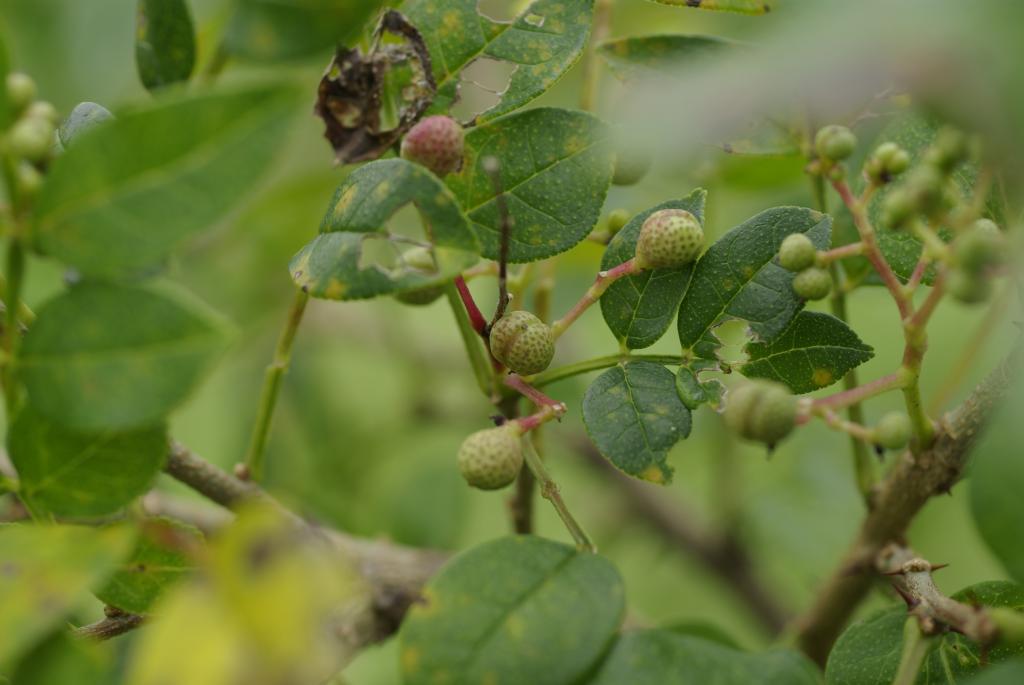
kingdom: Plantae
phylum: Tracheophyta
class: Magnoliopsida
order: Sapindales
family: Rutaceae
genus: Zanthoxylum
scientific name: Zanthoxylum simulans
